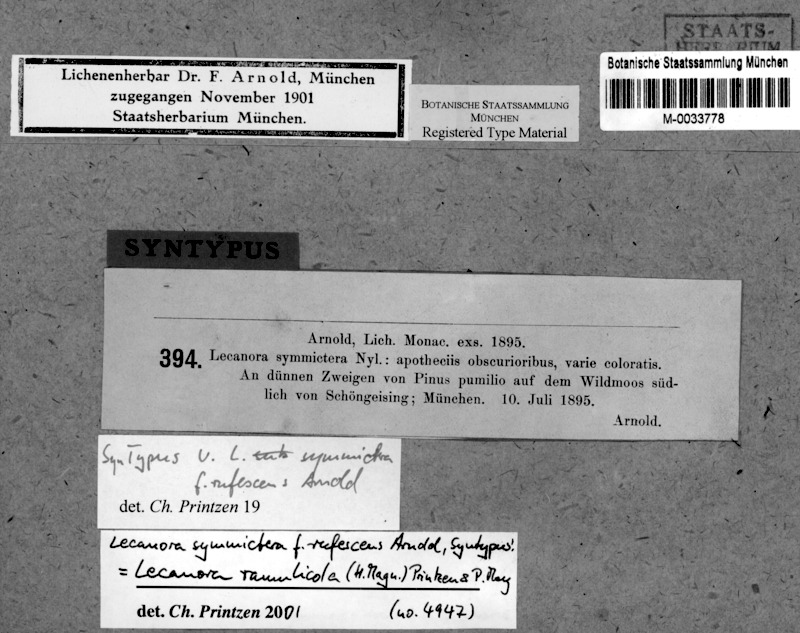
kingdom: Fungi
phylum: Ascomycota
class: Lecanoromycetes
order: Lecanorales
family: Lecanoraceae
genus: Palicella
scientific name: Palicella filamentosa
